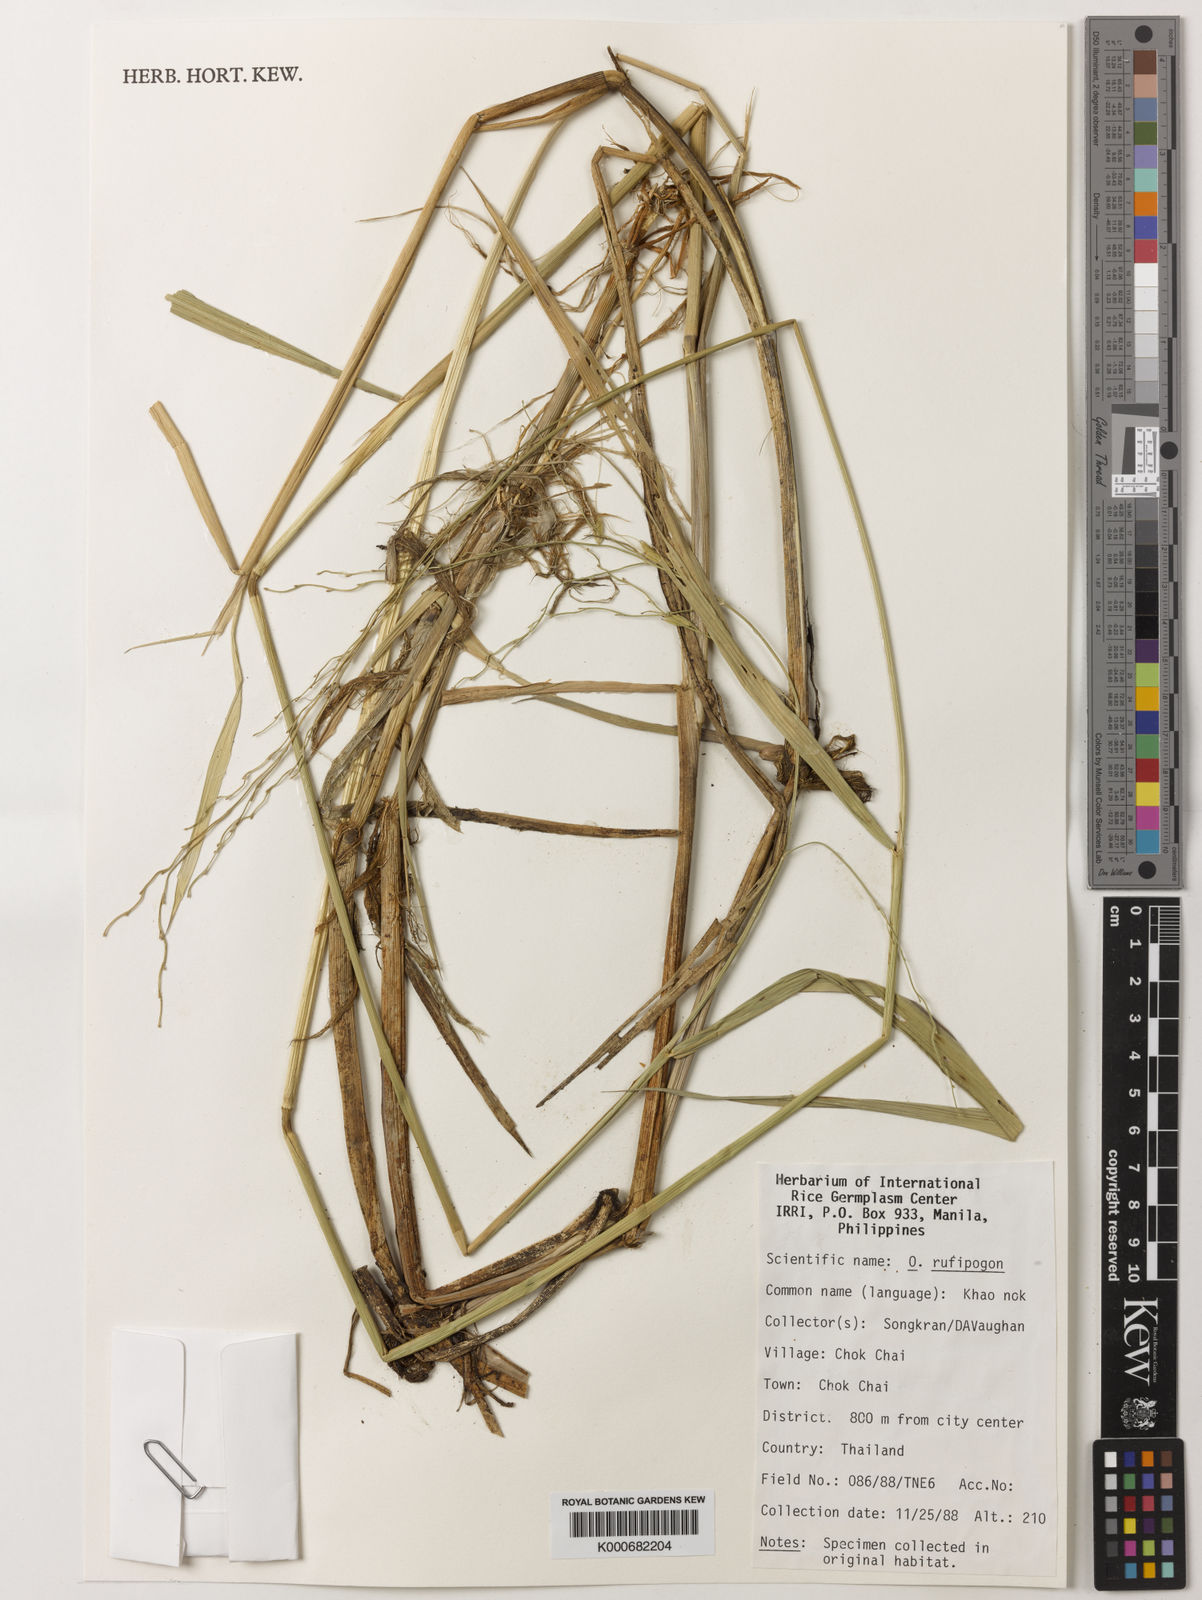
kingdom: Plantae
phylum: Tracheophyta
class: Liliopsida
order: Poales
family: Poaceae
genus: Oryza
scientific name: Oryza rufipogon
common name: Red rice
